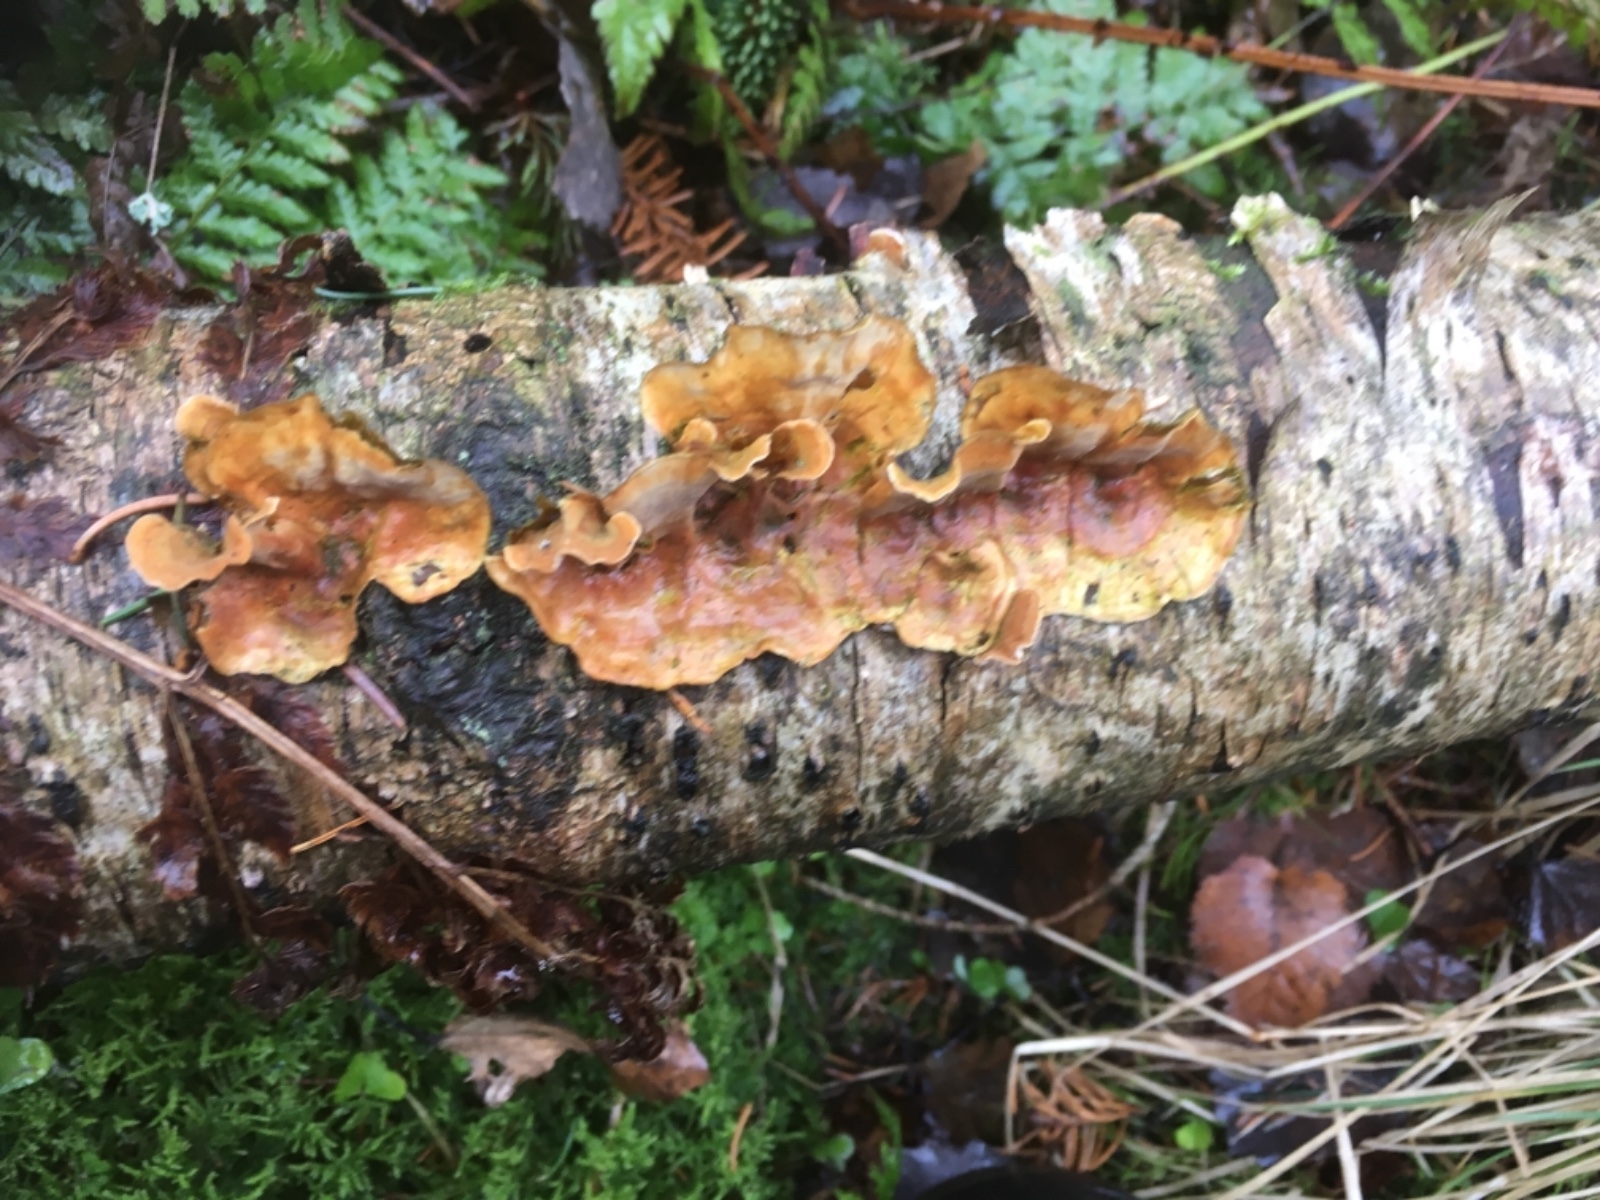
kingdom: Fungi
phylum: Basidiomycota
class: Agaricomycetes
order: Russulales
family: Stereaceae
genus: Stereum
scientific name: Stereum subtomentosum
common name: smuk lædersvamp
